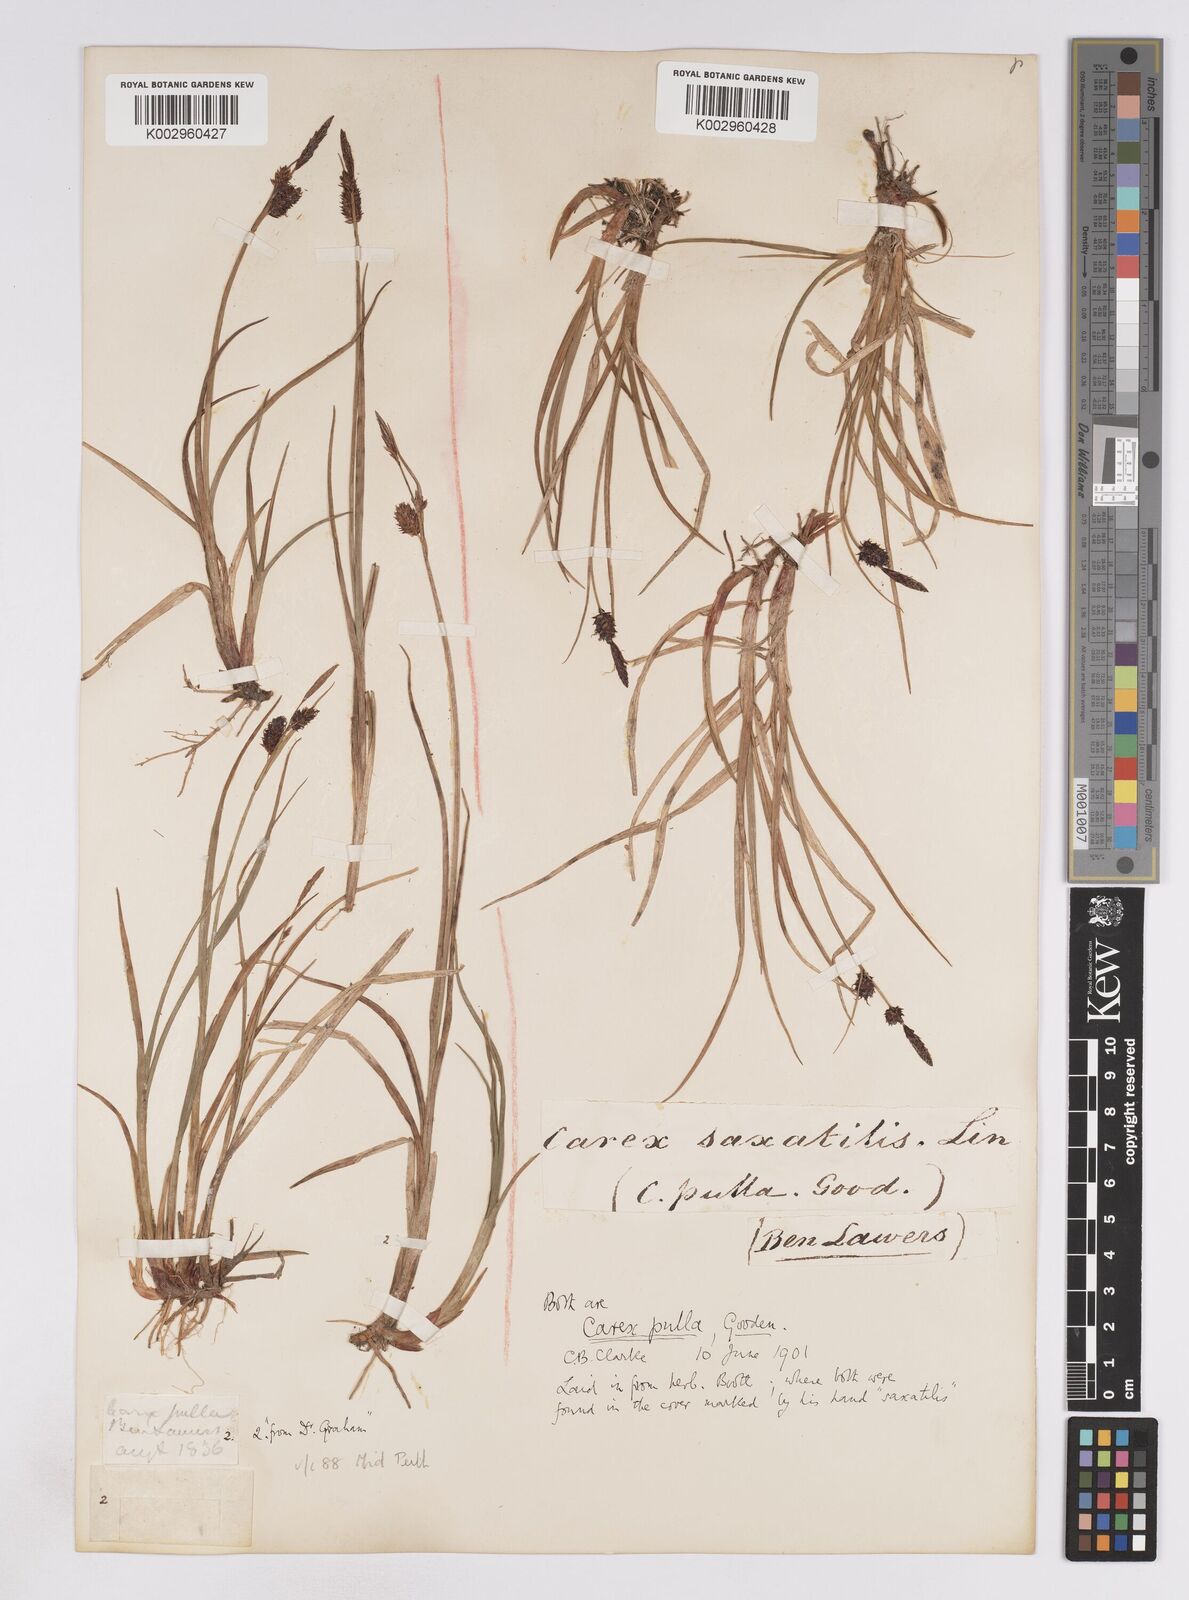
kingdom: Plantae
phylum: Tracheophyta
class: Liliopsida
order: Poales
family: Cyperaceae
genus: Carex
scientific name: Carex saxatilis
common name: Russet sedge
